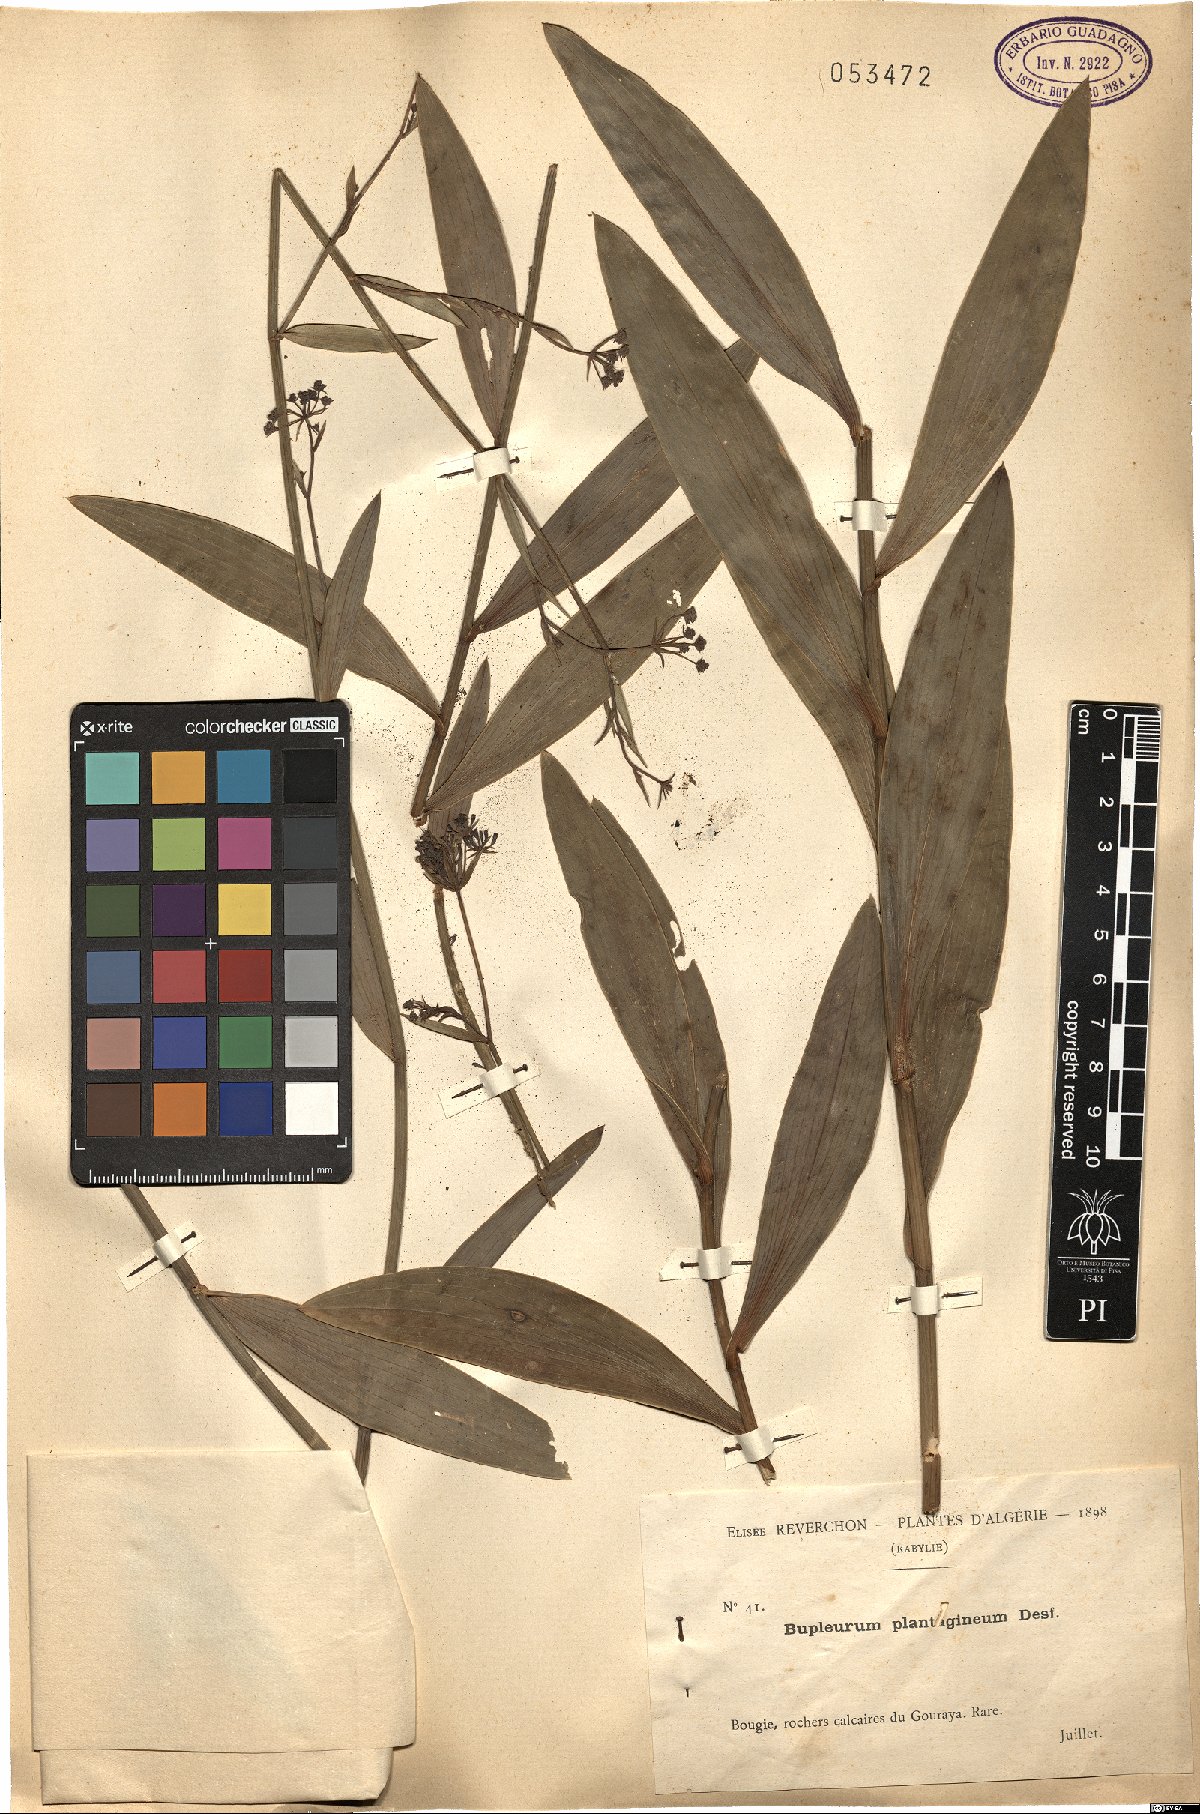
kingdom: Plantae
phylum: Tracheophyta
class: Magnoliopsida
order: Apiales
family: Apiaceae
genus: Bupleurum
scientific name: Bupleurum plantagineum
